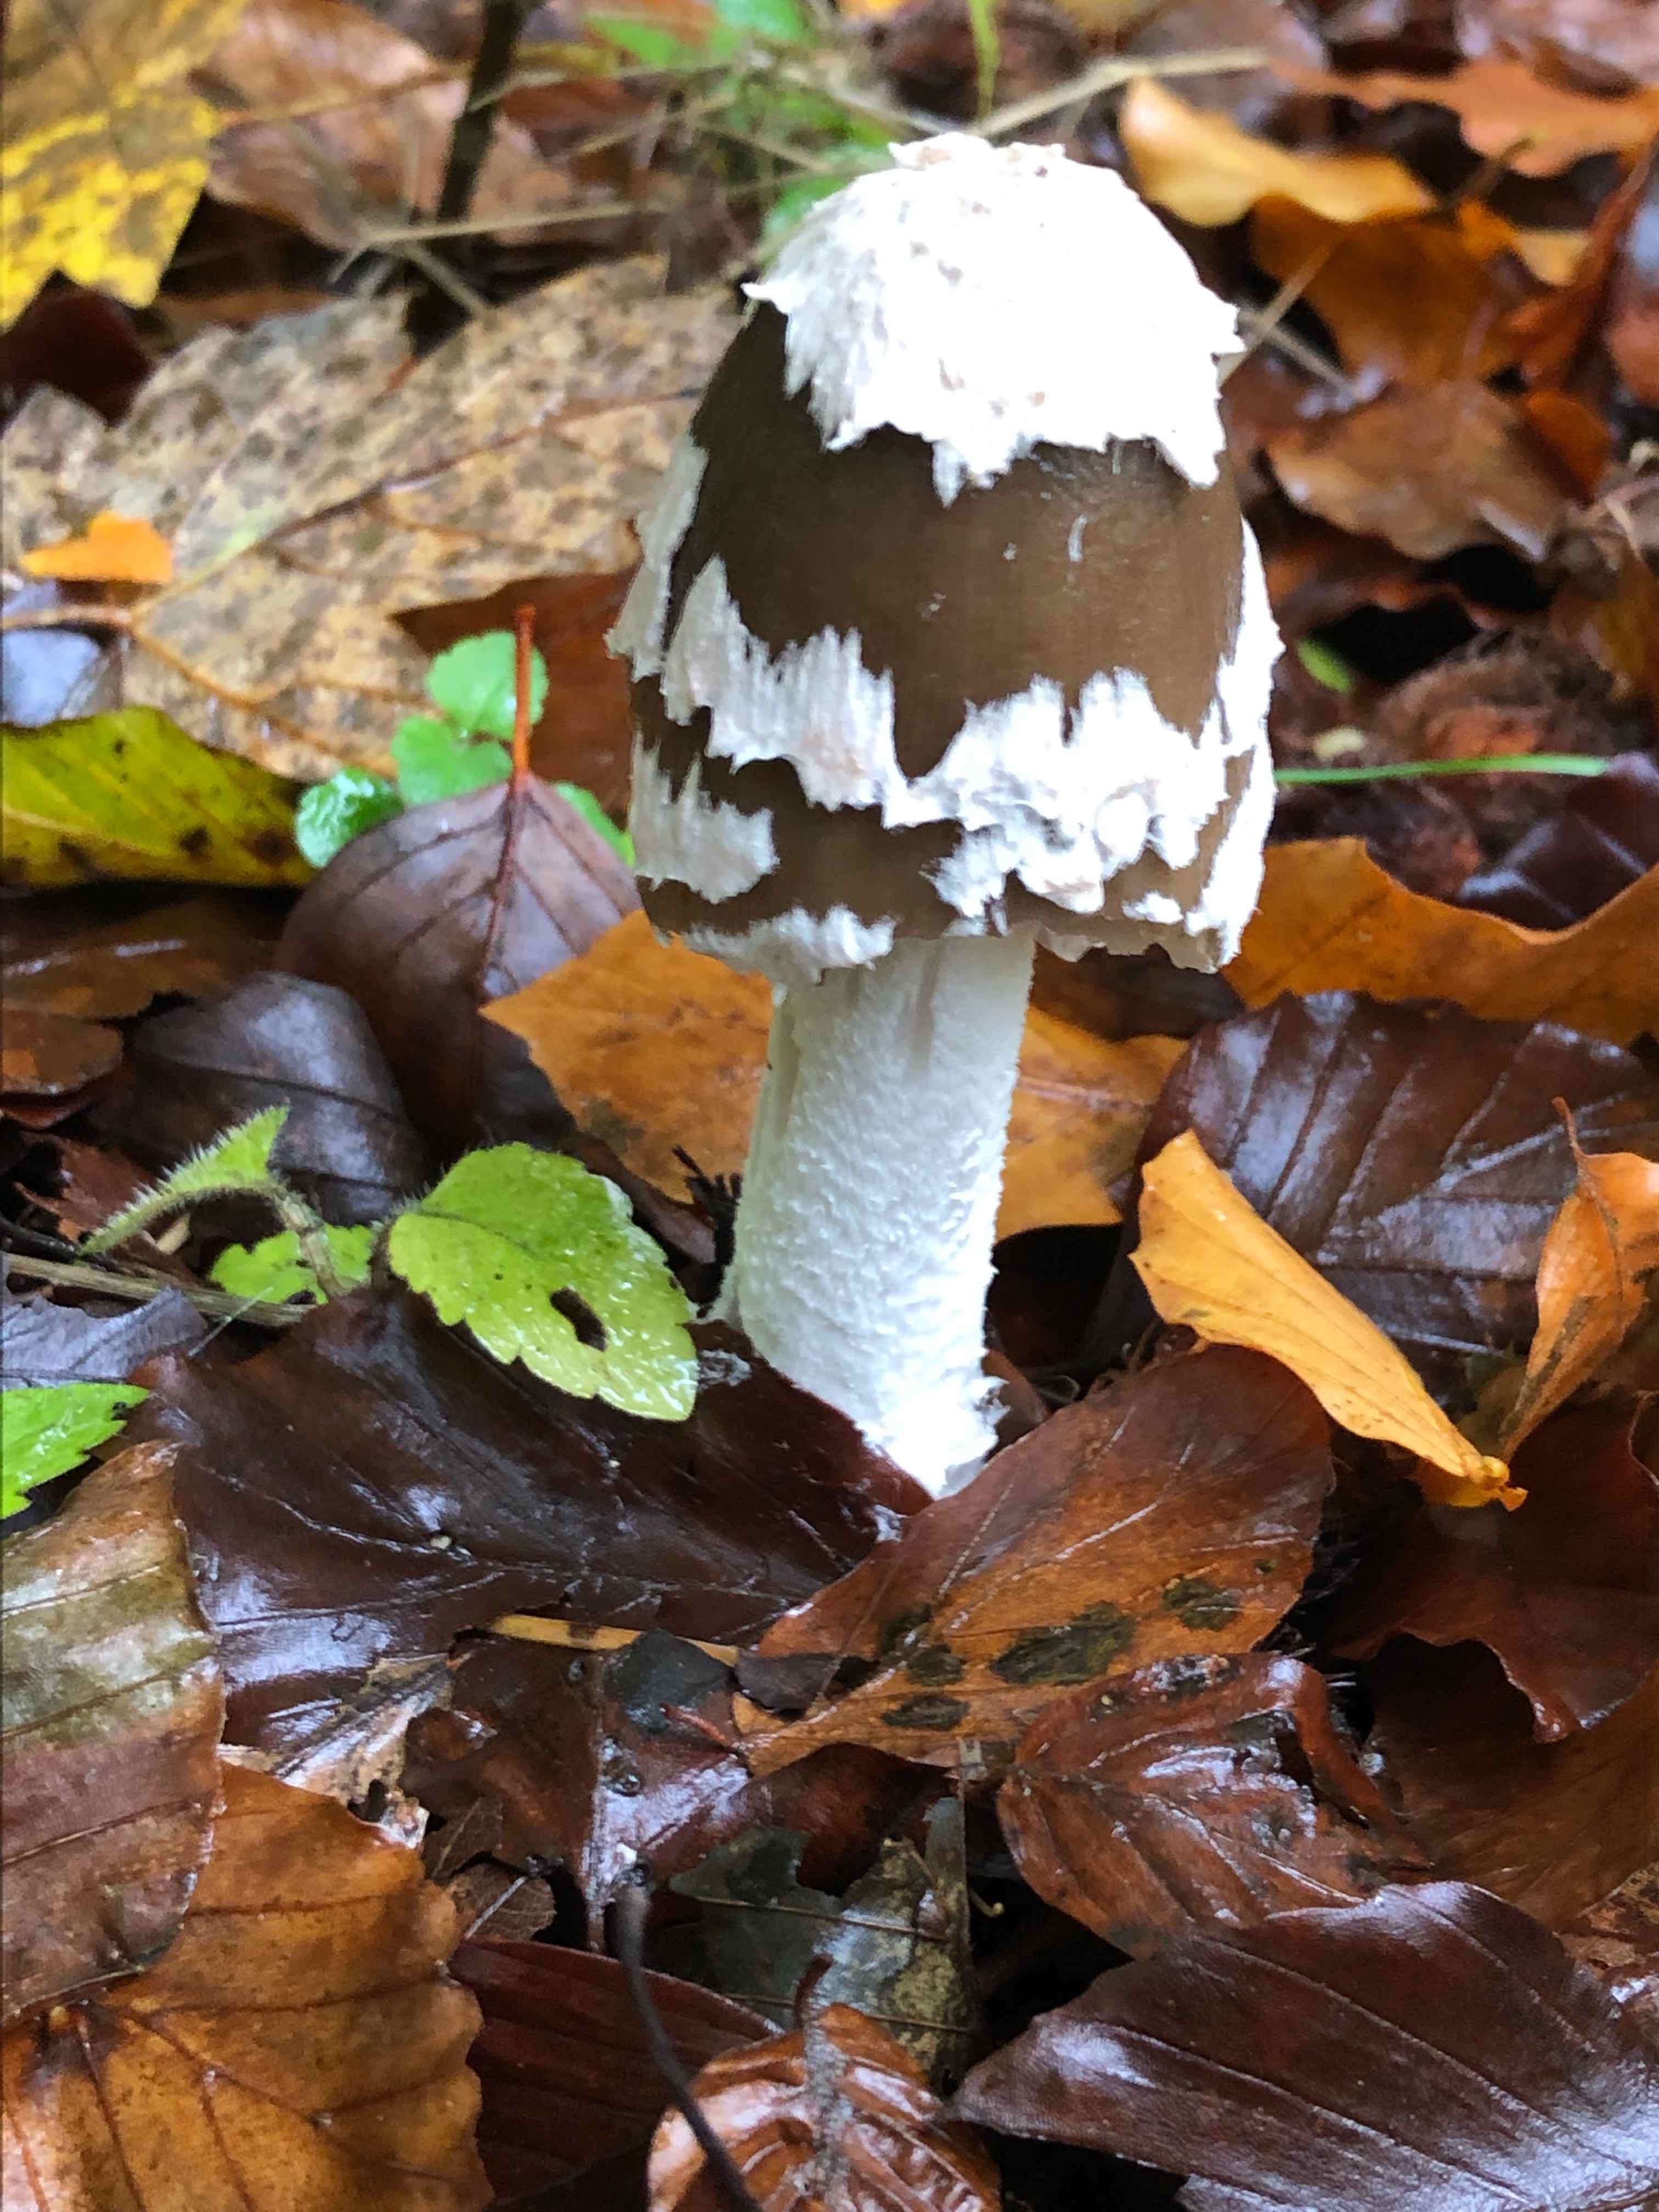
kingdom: Fungi
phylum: Basidiomycota
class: Agaricomycetes
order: Agaricales
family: Psathyrellaceae
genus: Coprinopsis
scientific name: Coprinopsis picacea
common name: skade-blækhat
